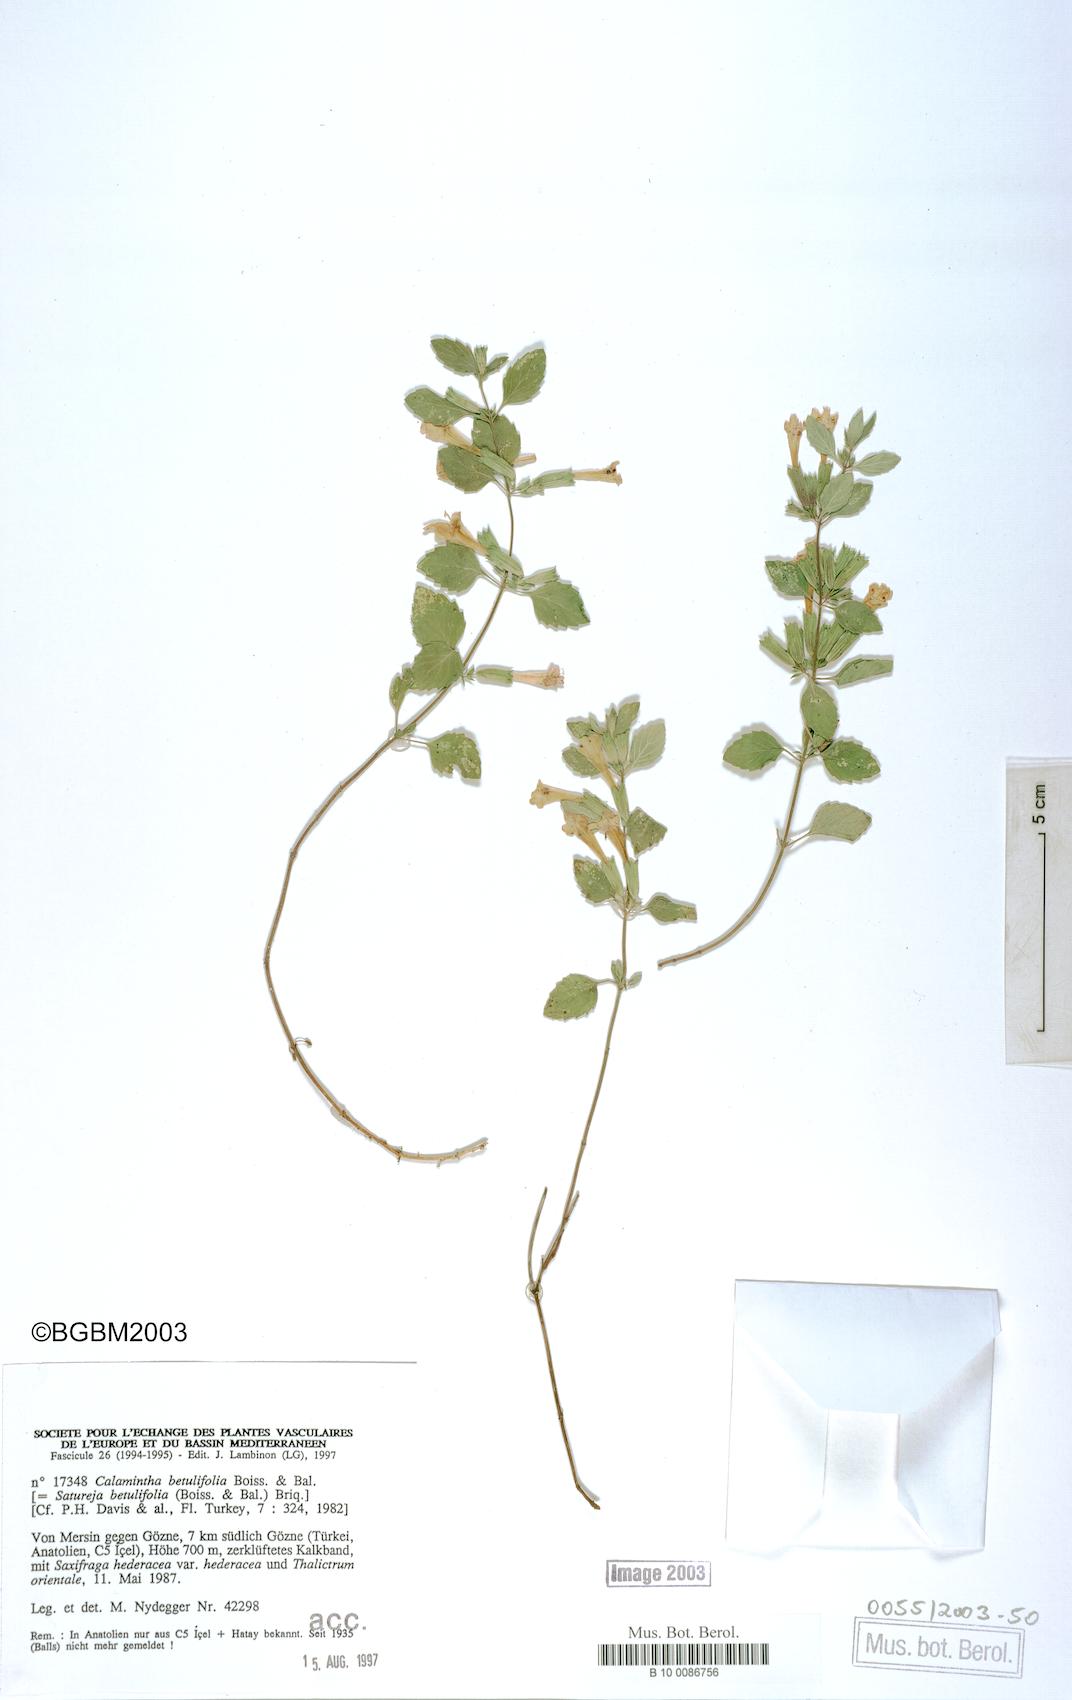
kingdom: Plantae
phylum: Tracheophyta
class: Magnoliopsida
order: Lamiales
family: Lamiaceae
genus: Clinopodium
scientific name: Clinopodium betulifolium
